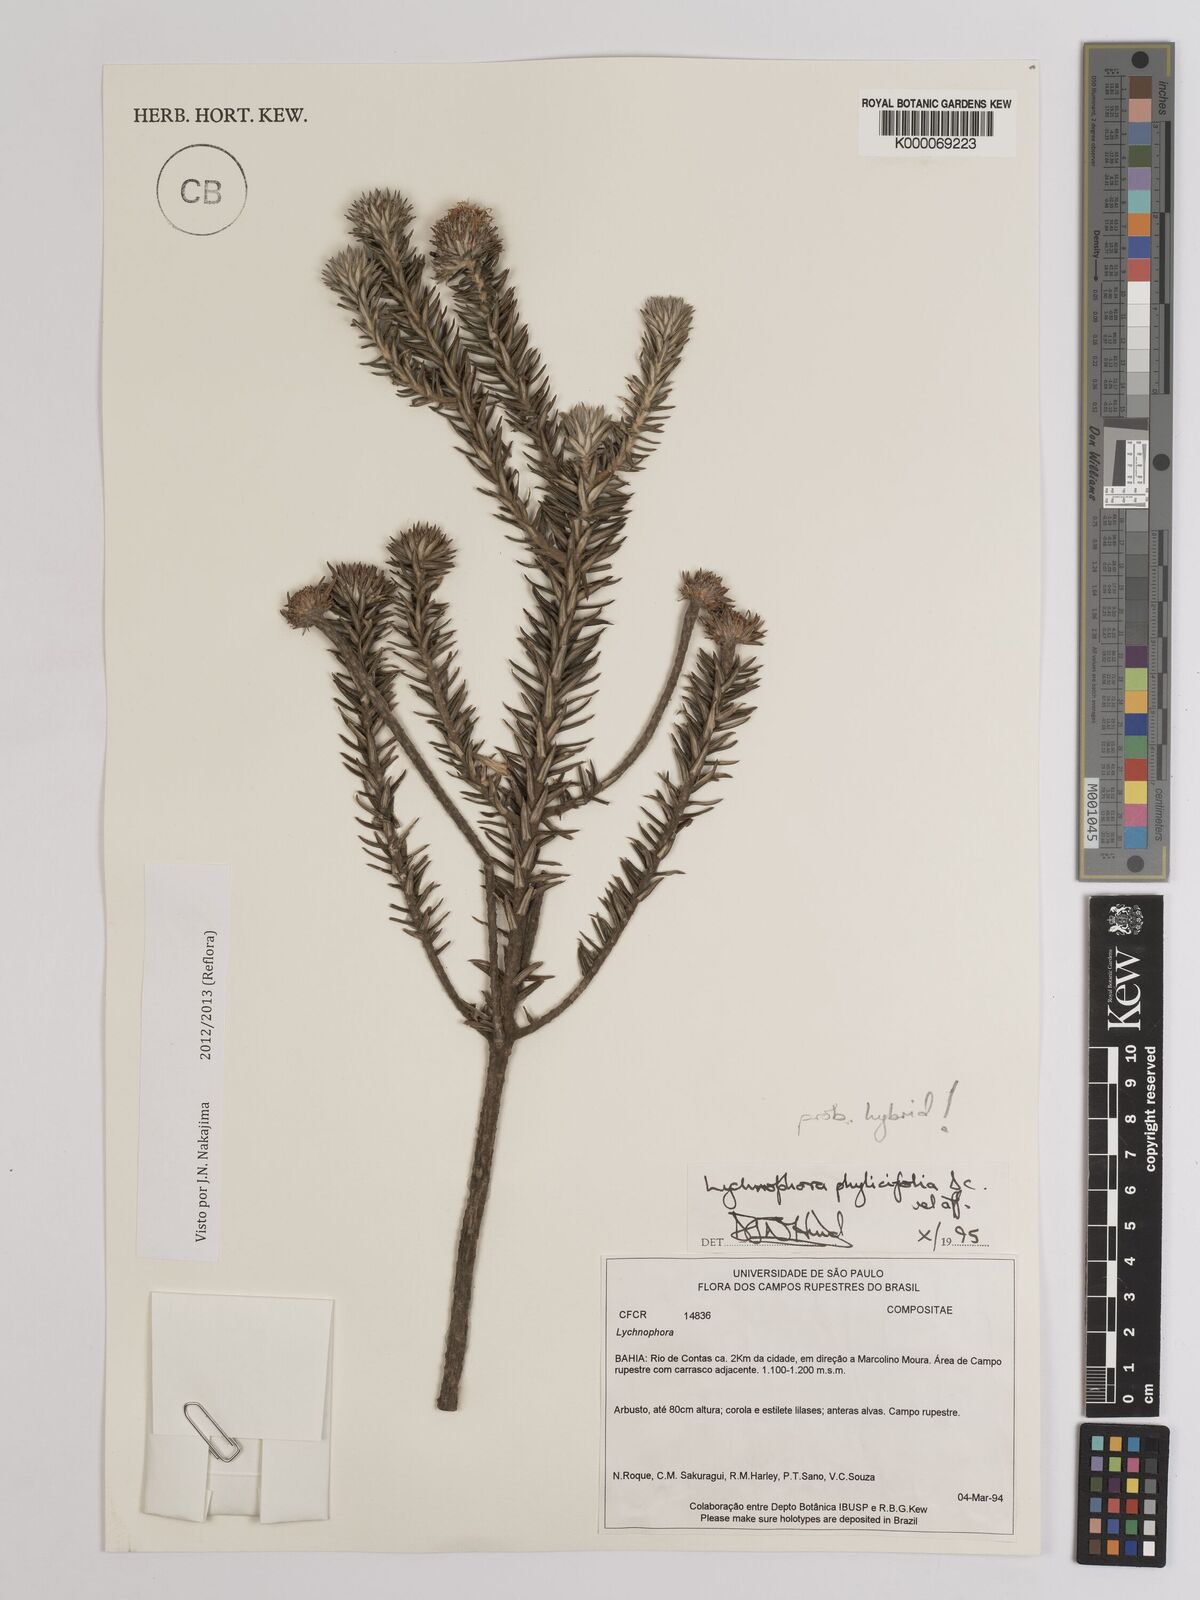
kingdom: Plantae
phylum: Tracheophyta
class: Magnoliopsida
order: Asterales
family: Asteraceae
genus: Lychnophora
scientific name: Lychnophora phylicifolia
